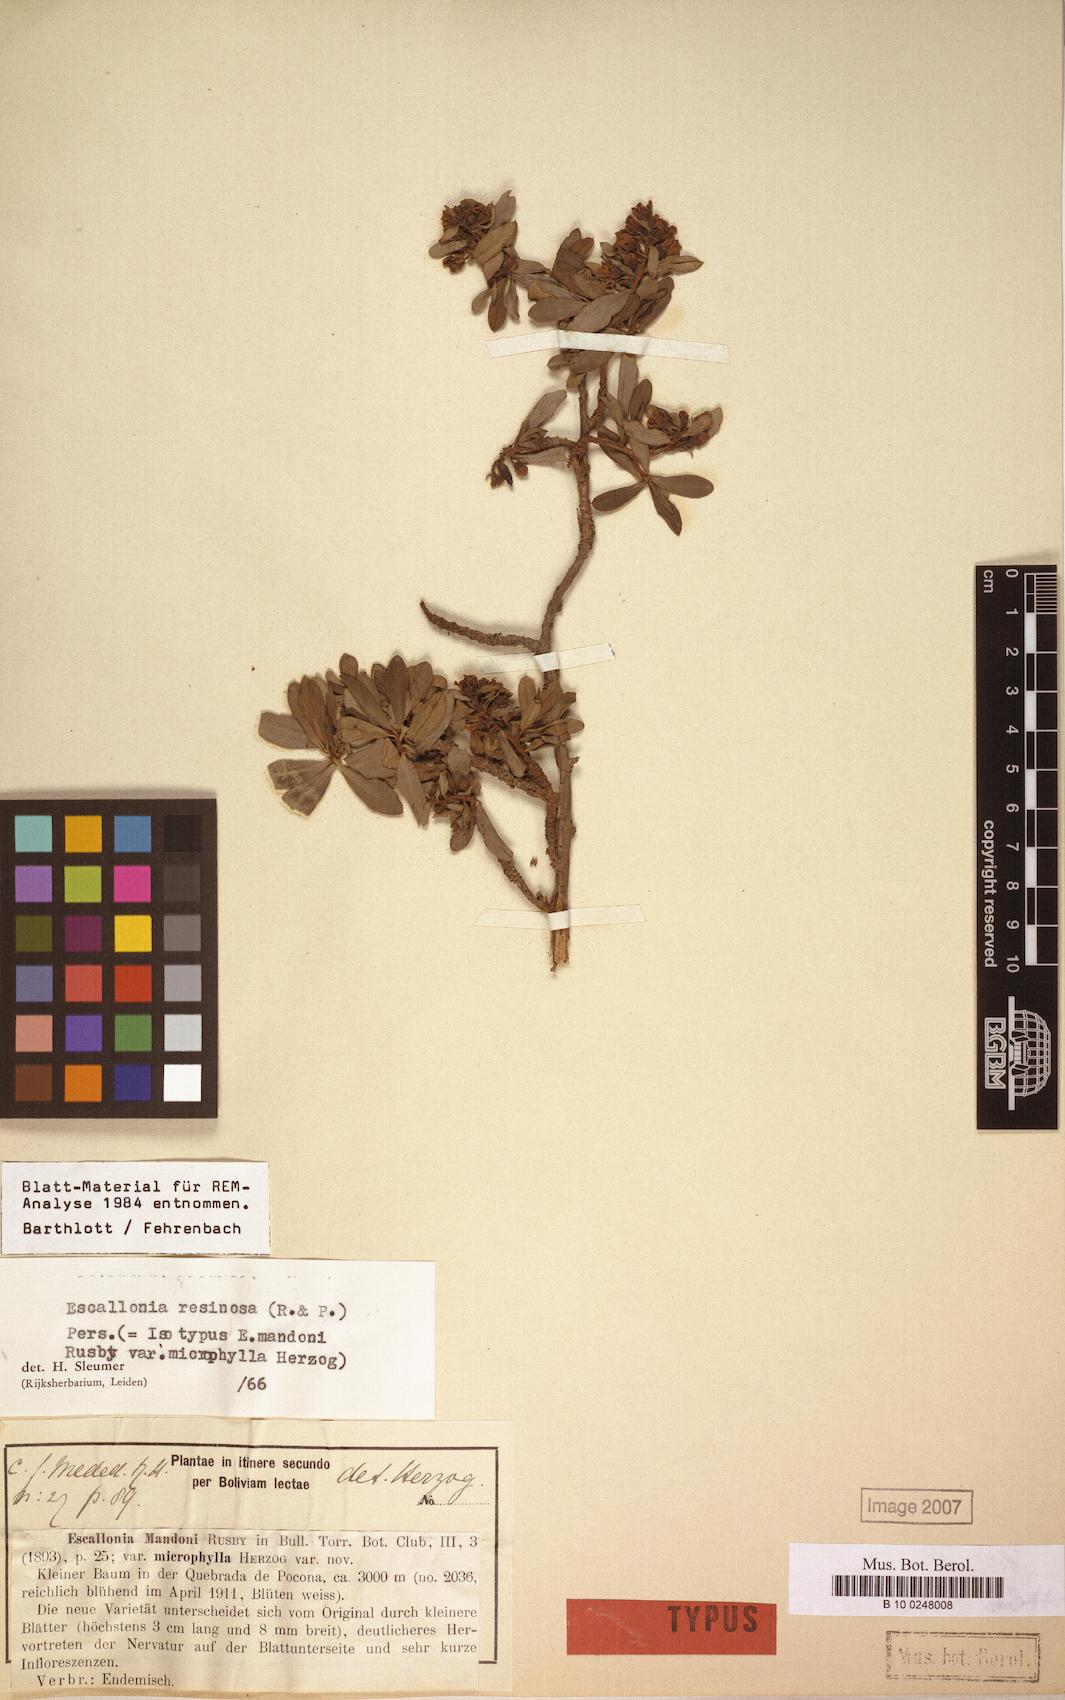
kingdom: Plantae
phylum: Tracheophyta
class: Magnoliopsida
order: Escalloniales
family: Escalloniaceae
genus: Escallonia
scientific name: Escallonia resinosa
